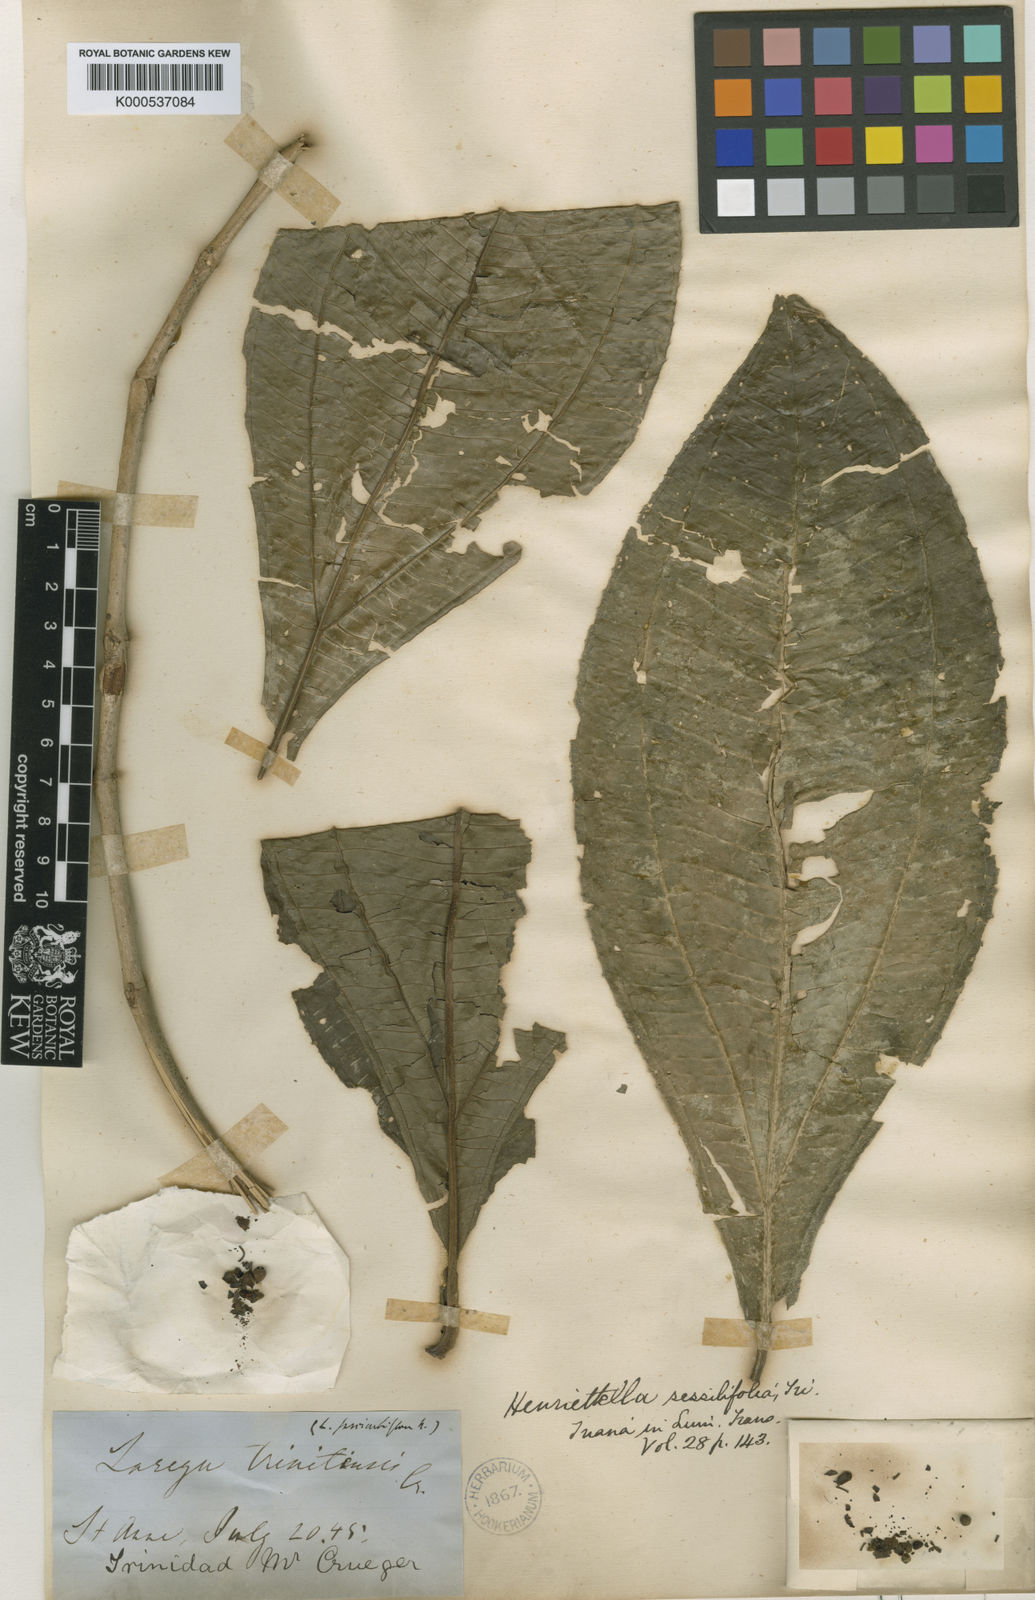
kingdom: Plantae
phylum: Tracheophyta
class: Magnoliopsida
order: Myrtales
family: Melastomataceae
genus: Henriettea
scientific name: Henriettea sessilifolia
